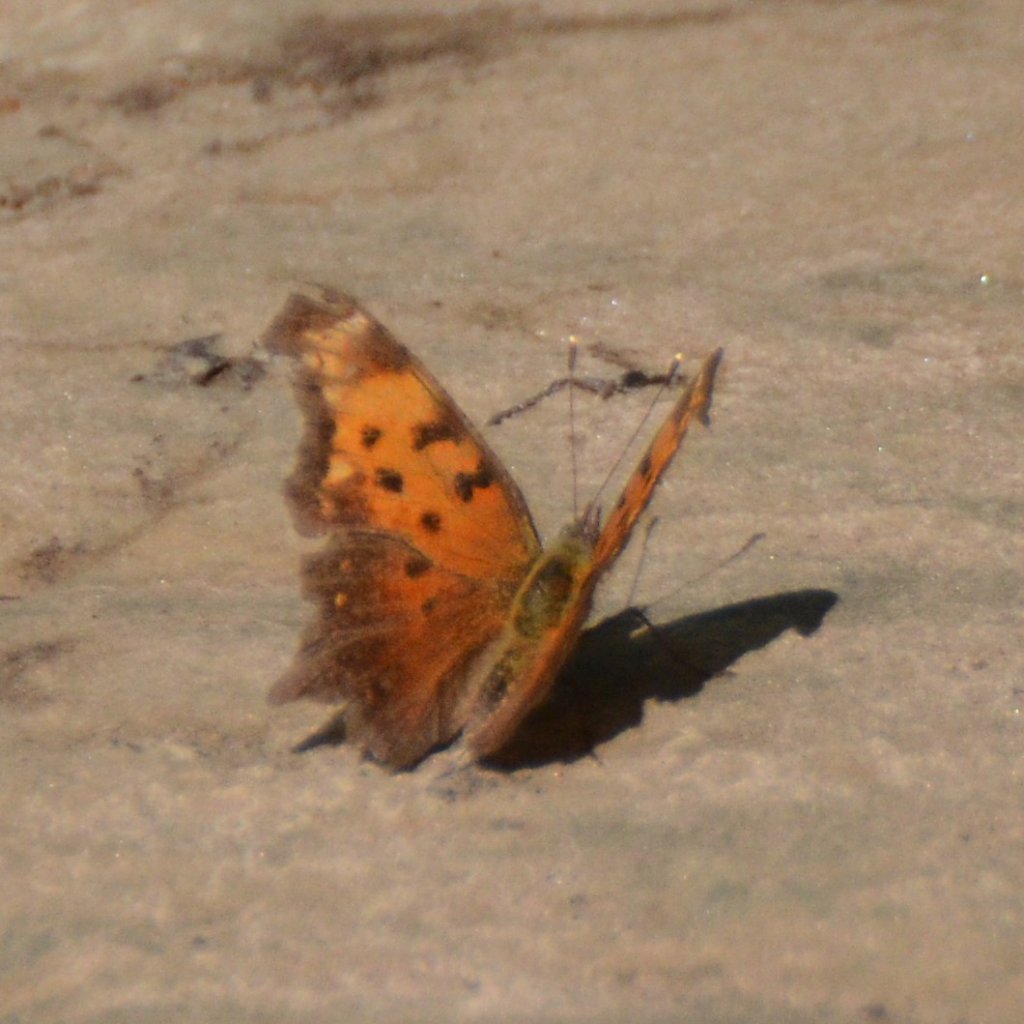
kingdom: Animalia
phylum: Arthropoda
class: Insecta
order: Lepidoptera
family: Nymphalidae
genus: Polygonia
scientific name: Polygonia progne
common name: Gray Comma
